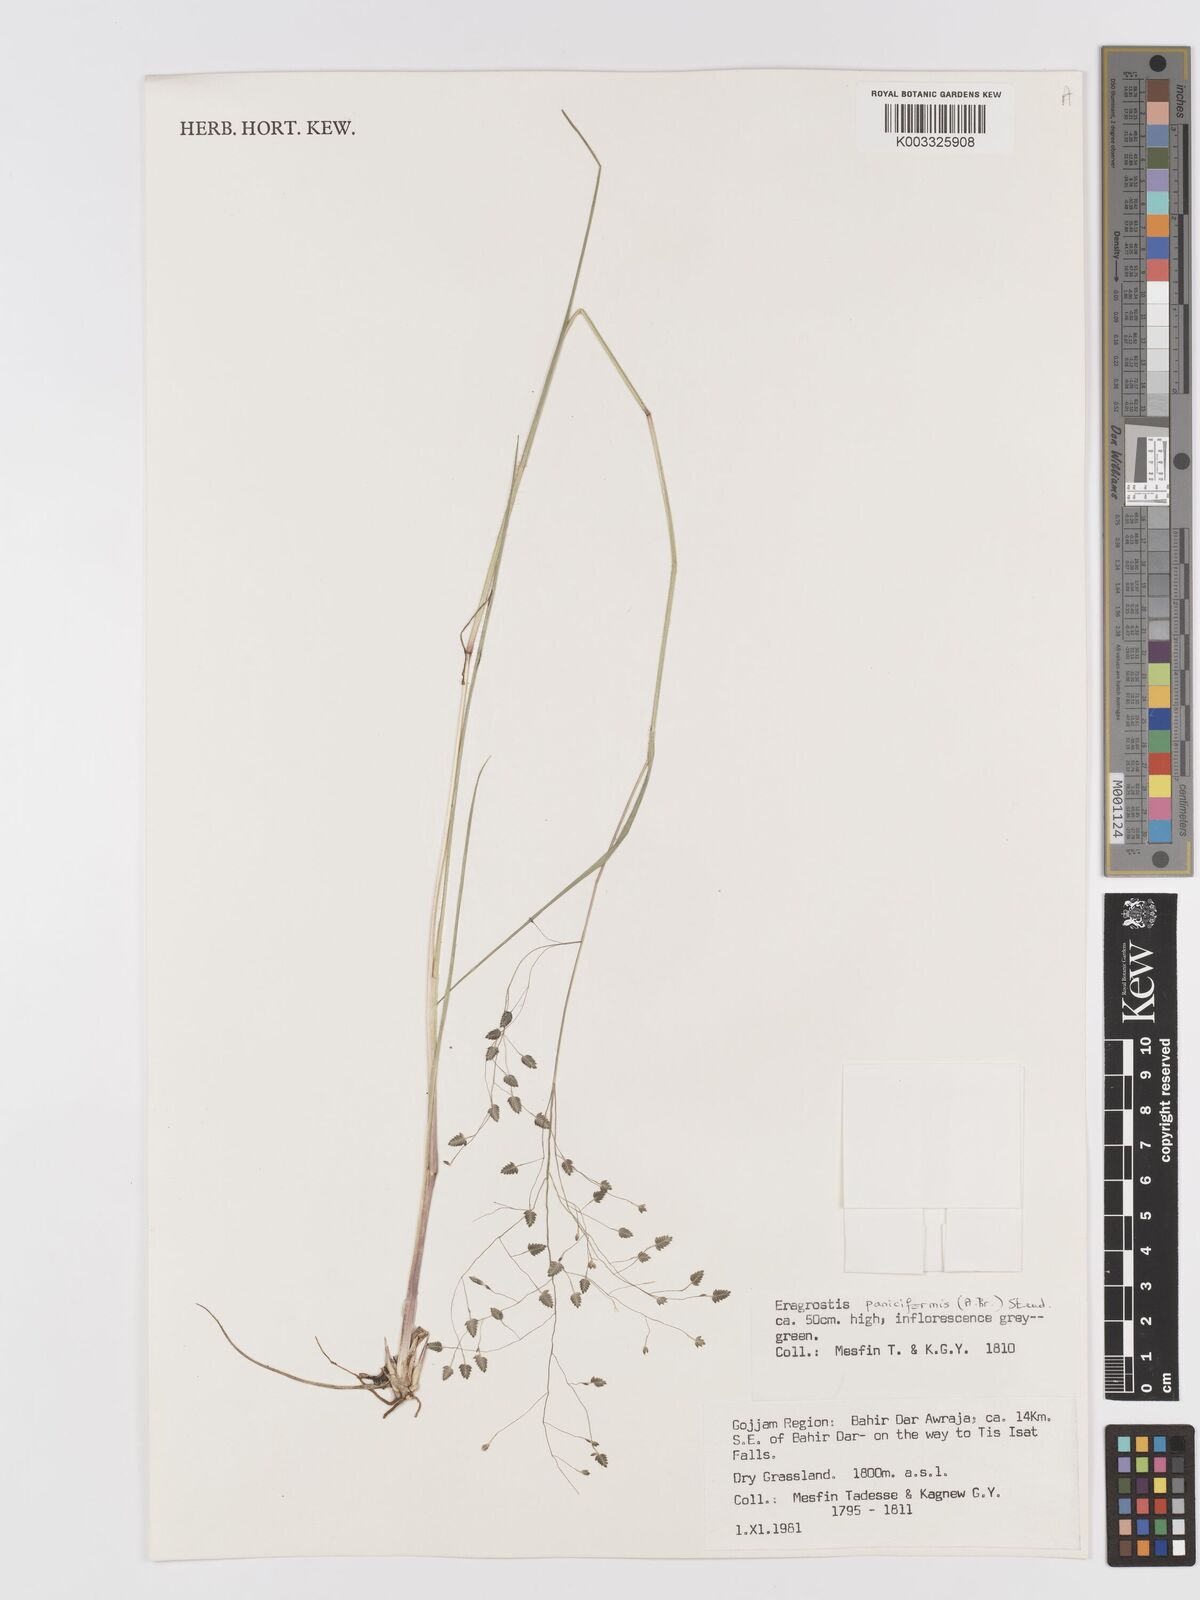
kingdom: Plantae
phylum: Tracheophyta
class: Liliopsida
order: Poales
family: Poaceae
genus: Eragrostis
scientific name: Eragrostis paniciformis
